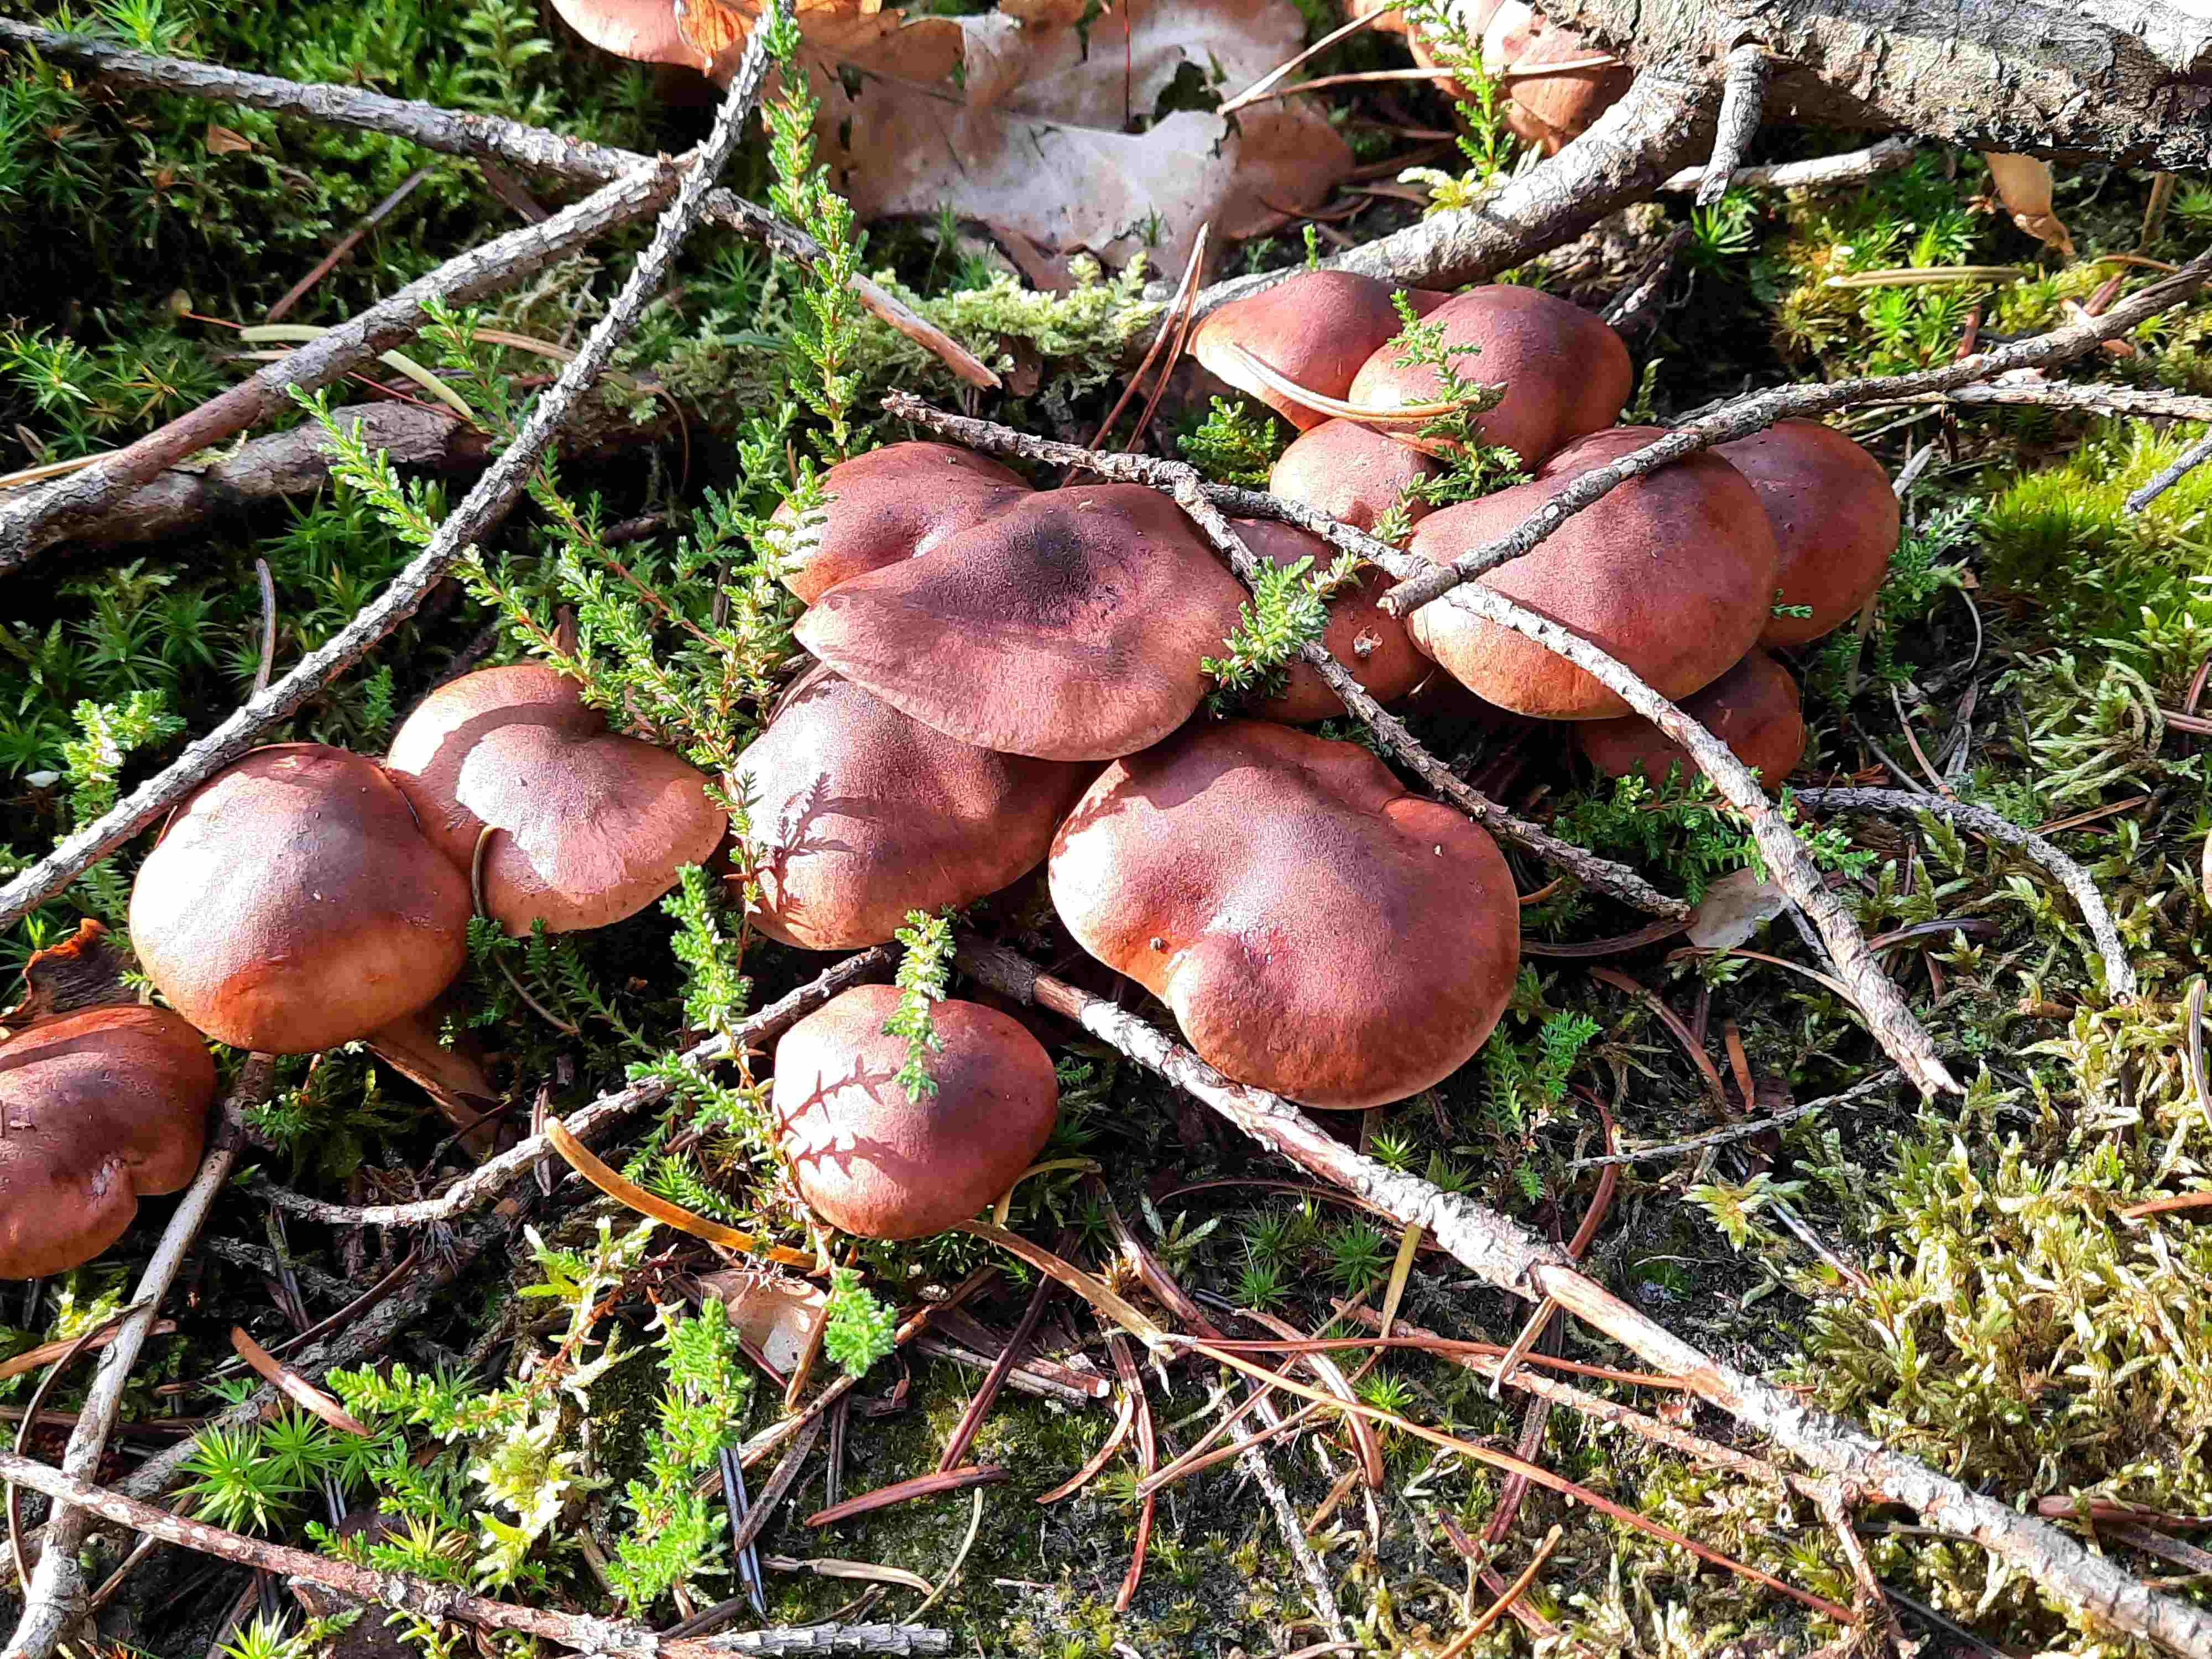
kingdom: Fungi
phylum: Basidiomycota
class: Agaricomycetes
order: Agaricales
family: Tricholomataceae
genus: Tricholoma
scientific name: Tricholoma fulvum
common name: birke-ridderhat
